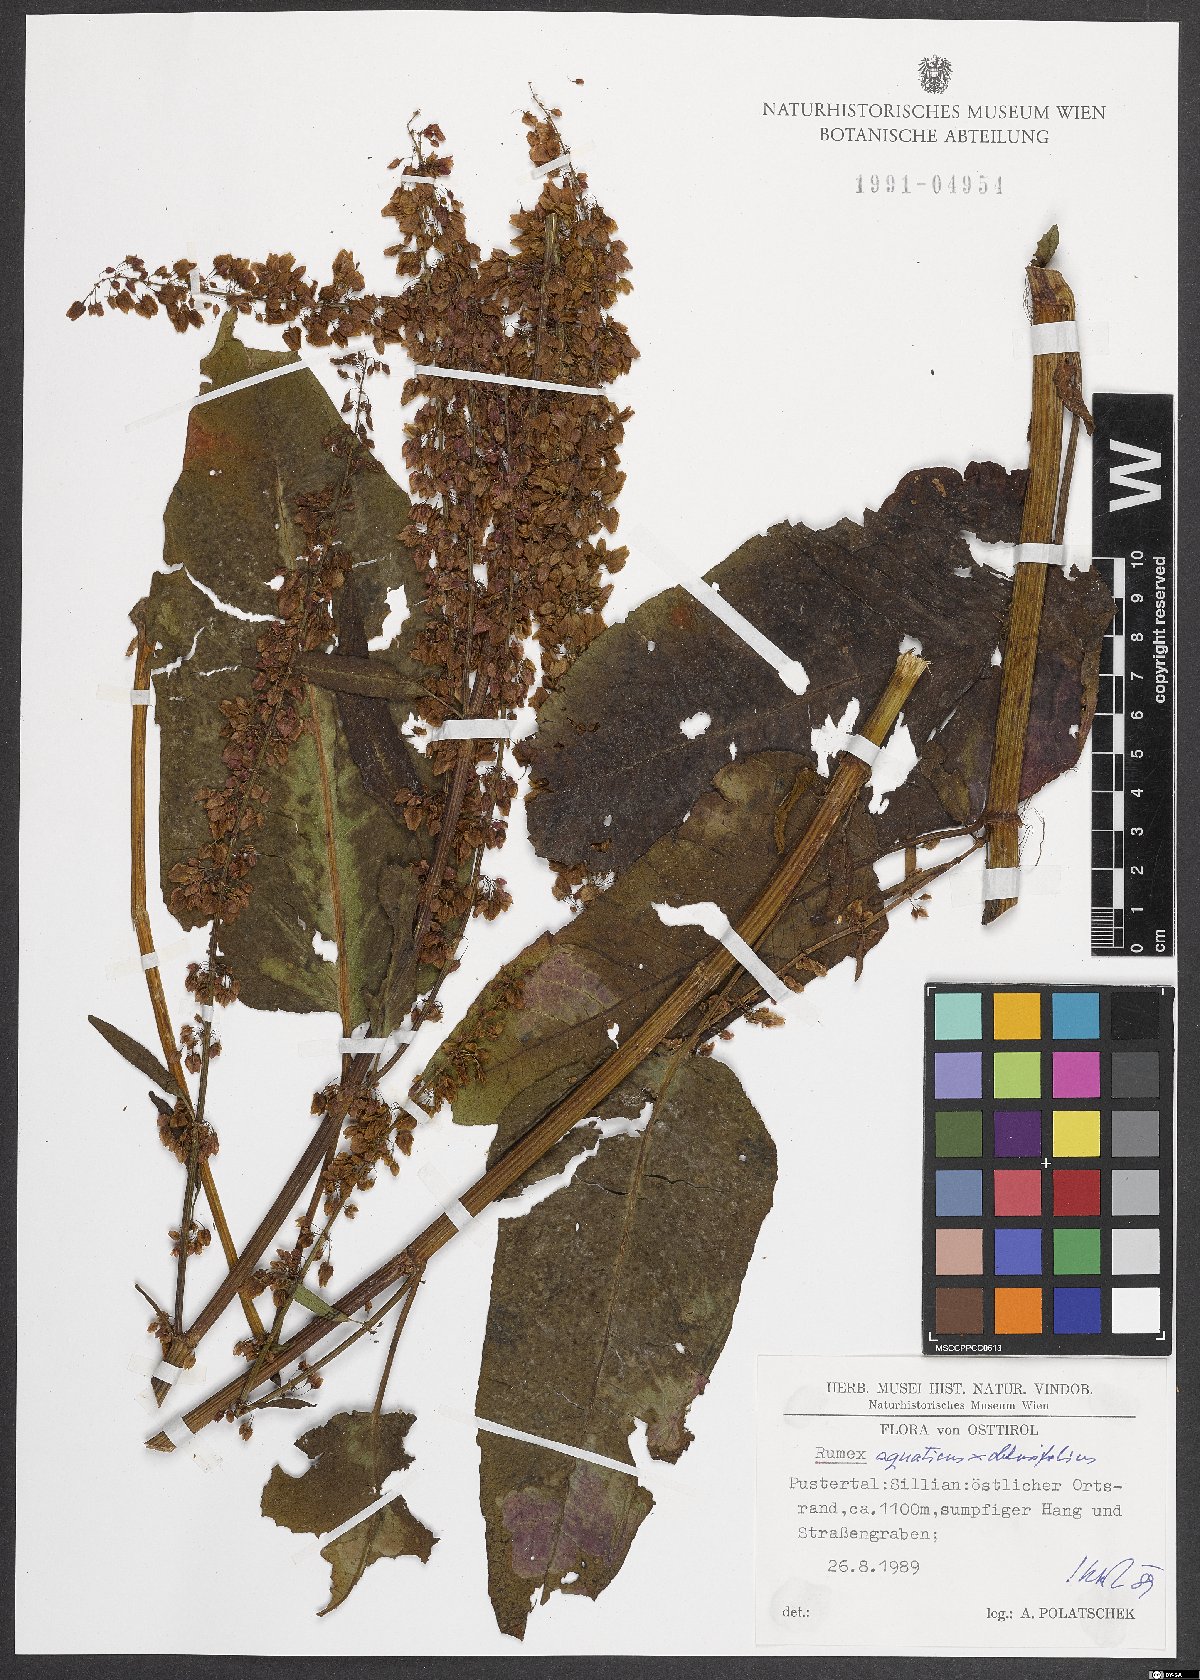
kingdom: Plantae
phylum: Tracheophyta
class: Magnoliopsida
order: Caryophyllales
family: Polygonaceae
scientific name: Polygonaceae
